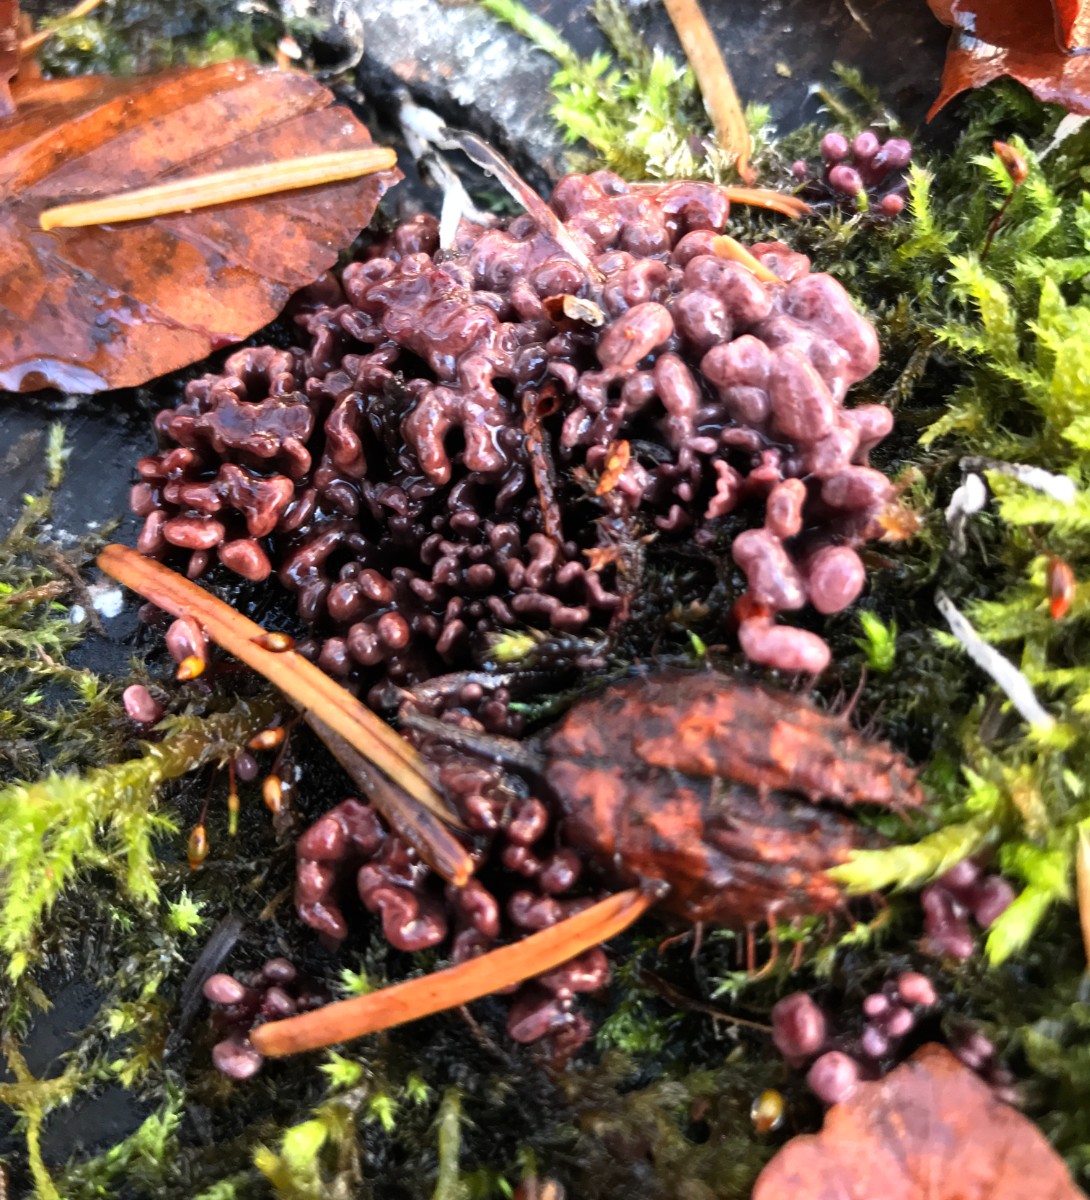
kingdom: Fungi
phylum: Ascomycota
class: Leotiomycetes
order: Helotiales
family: Gelatinodiscaceae
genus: Ascocoryne
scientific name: Ascocoryne sarcoides
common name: rødlilla sejskive
